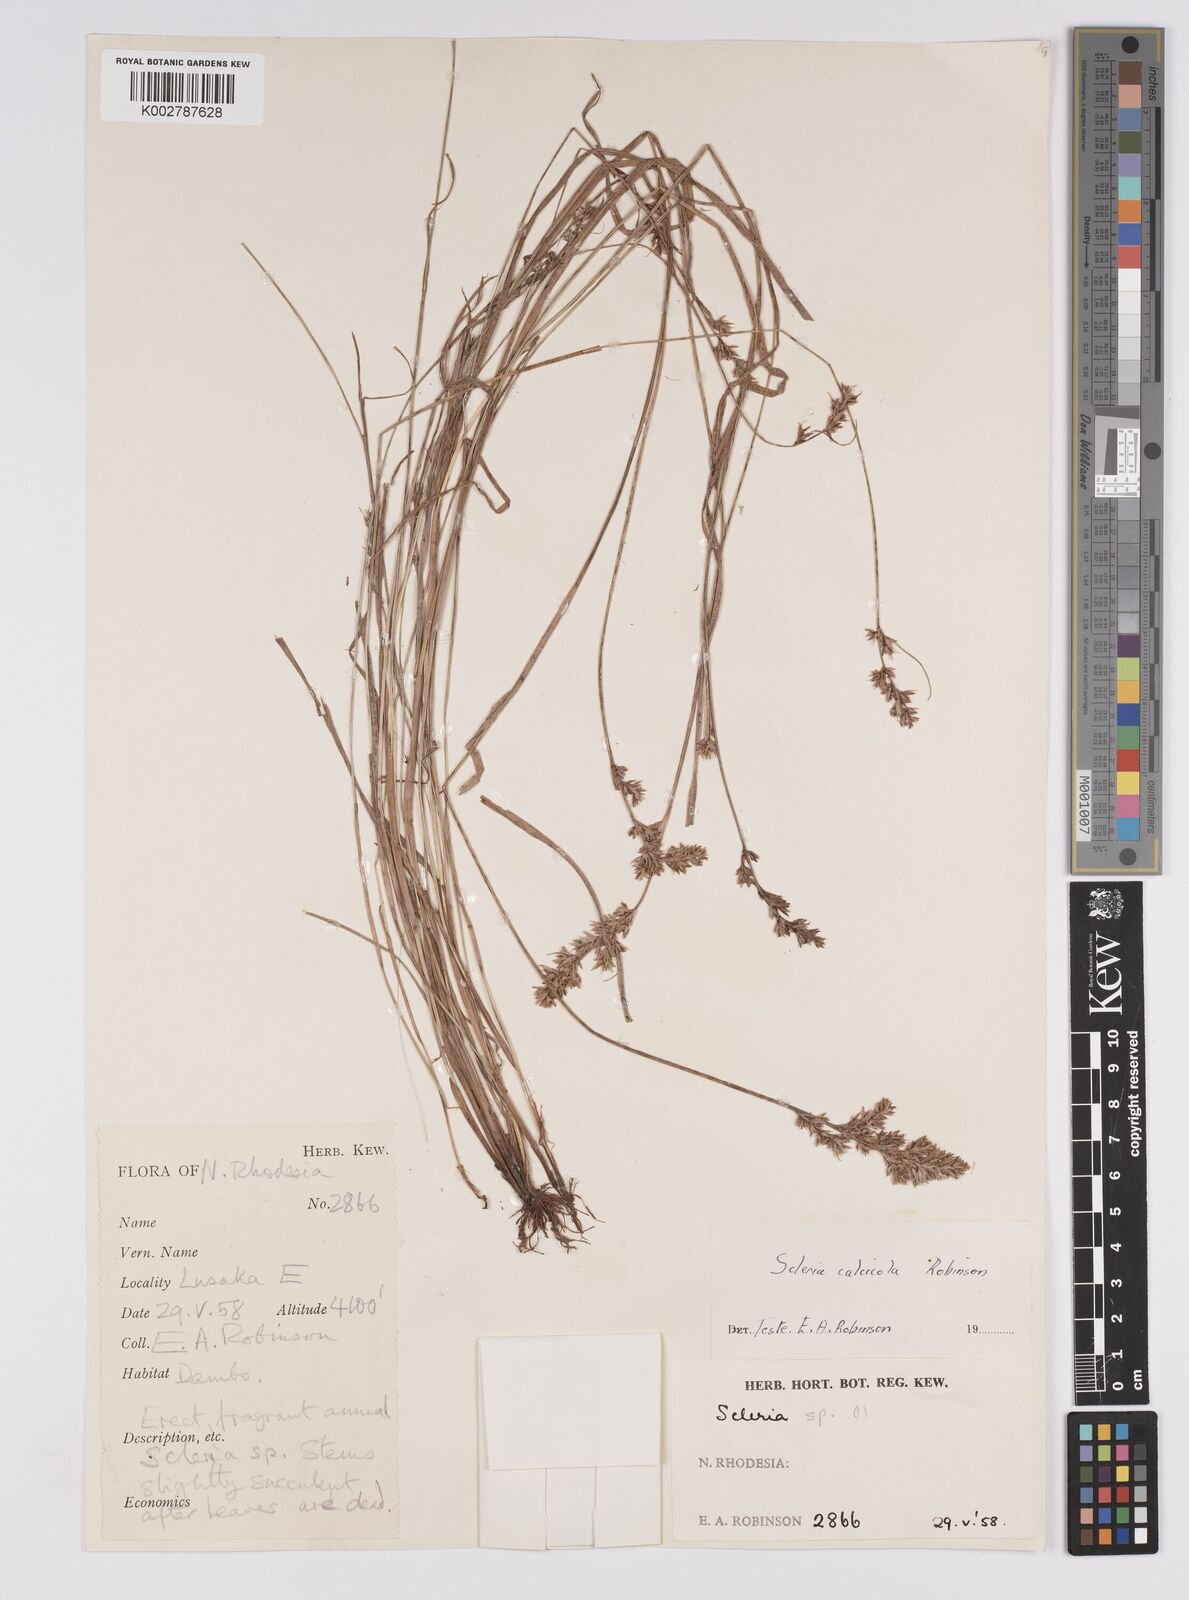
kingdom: Plantae
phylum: Tracheophyta
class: Liliopsida
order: Poales
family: Cyperaceae
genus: Scleria
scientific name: Scleria calcicola
